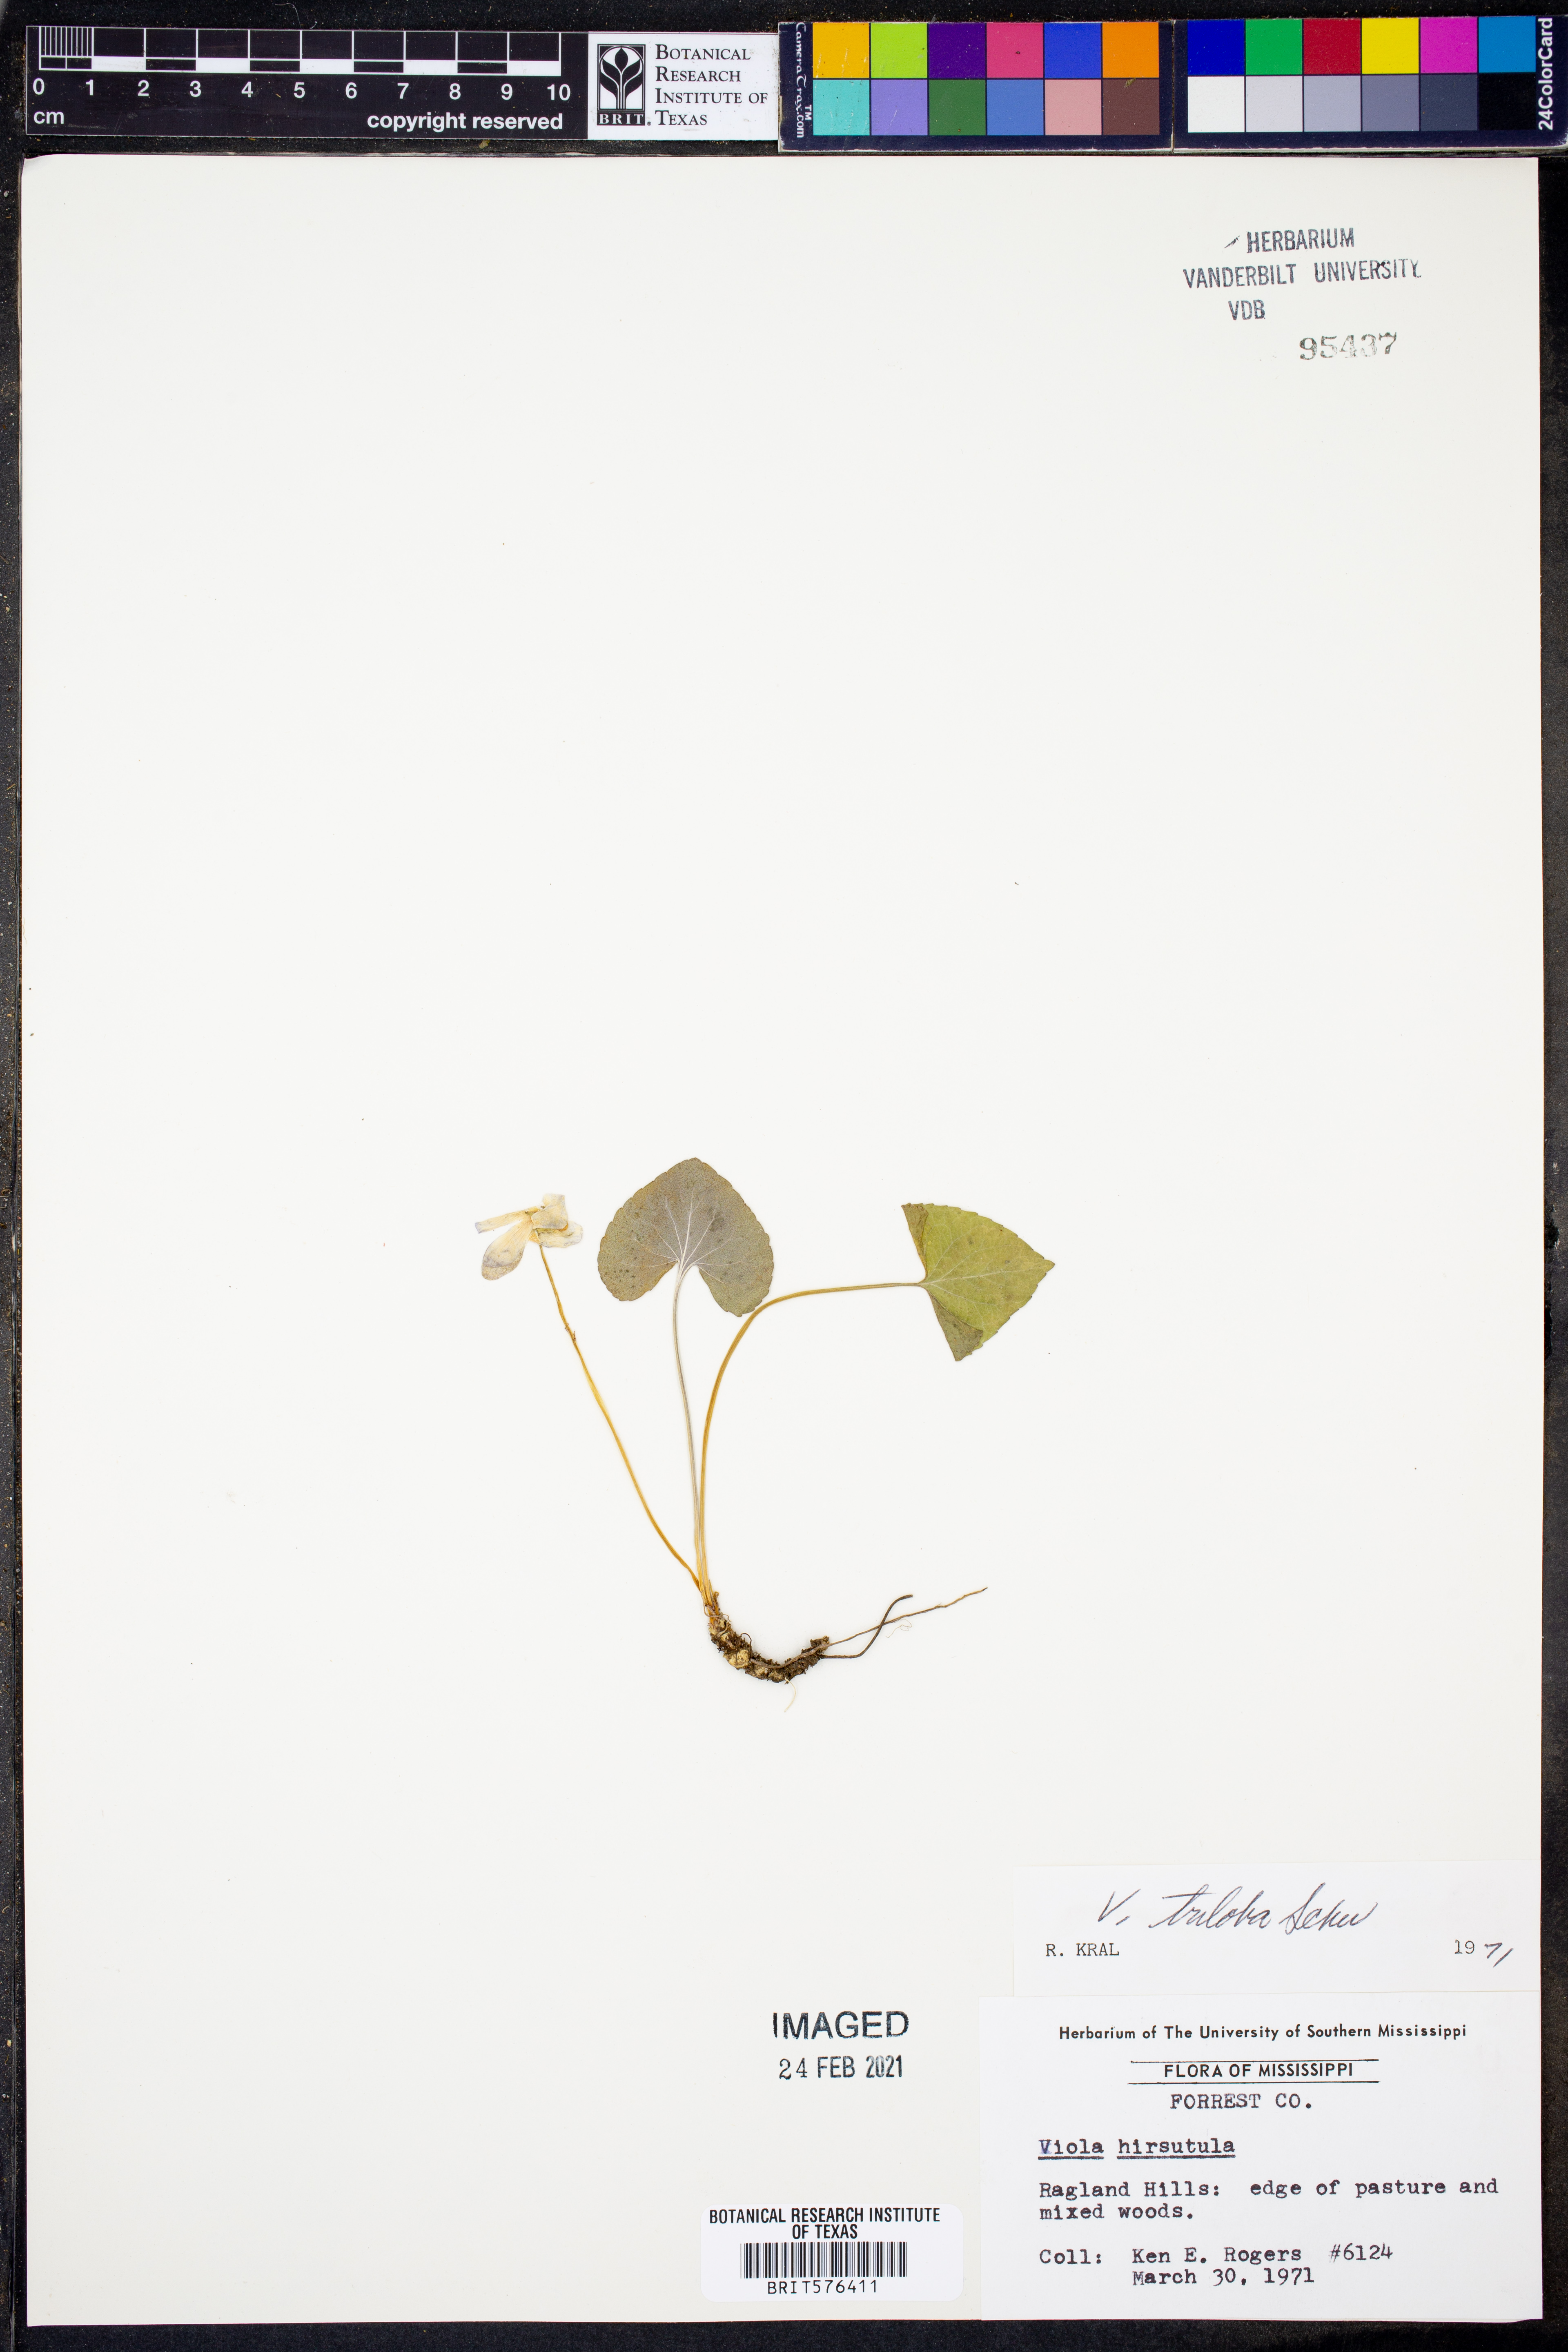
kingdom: Plantae
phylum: Tracheophyta
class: Magnoliopsida
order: Malpighiales
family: Violaceae
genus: Viola
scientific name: Viola palmata
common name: Early blue violet
